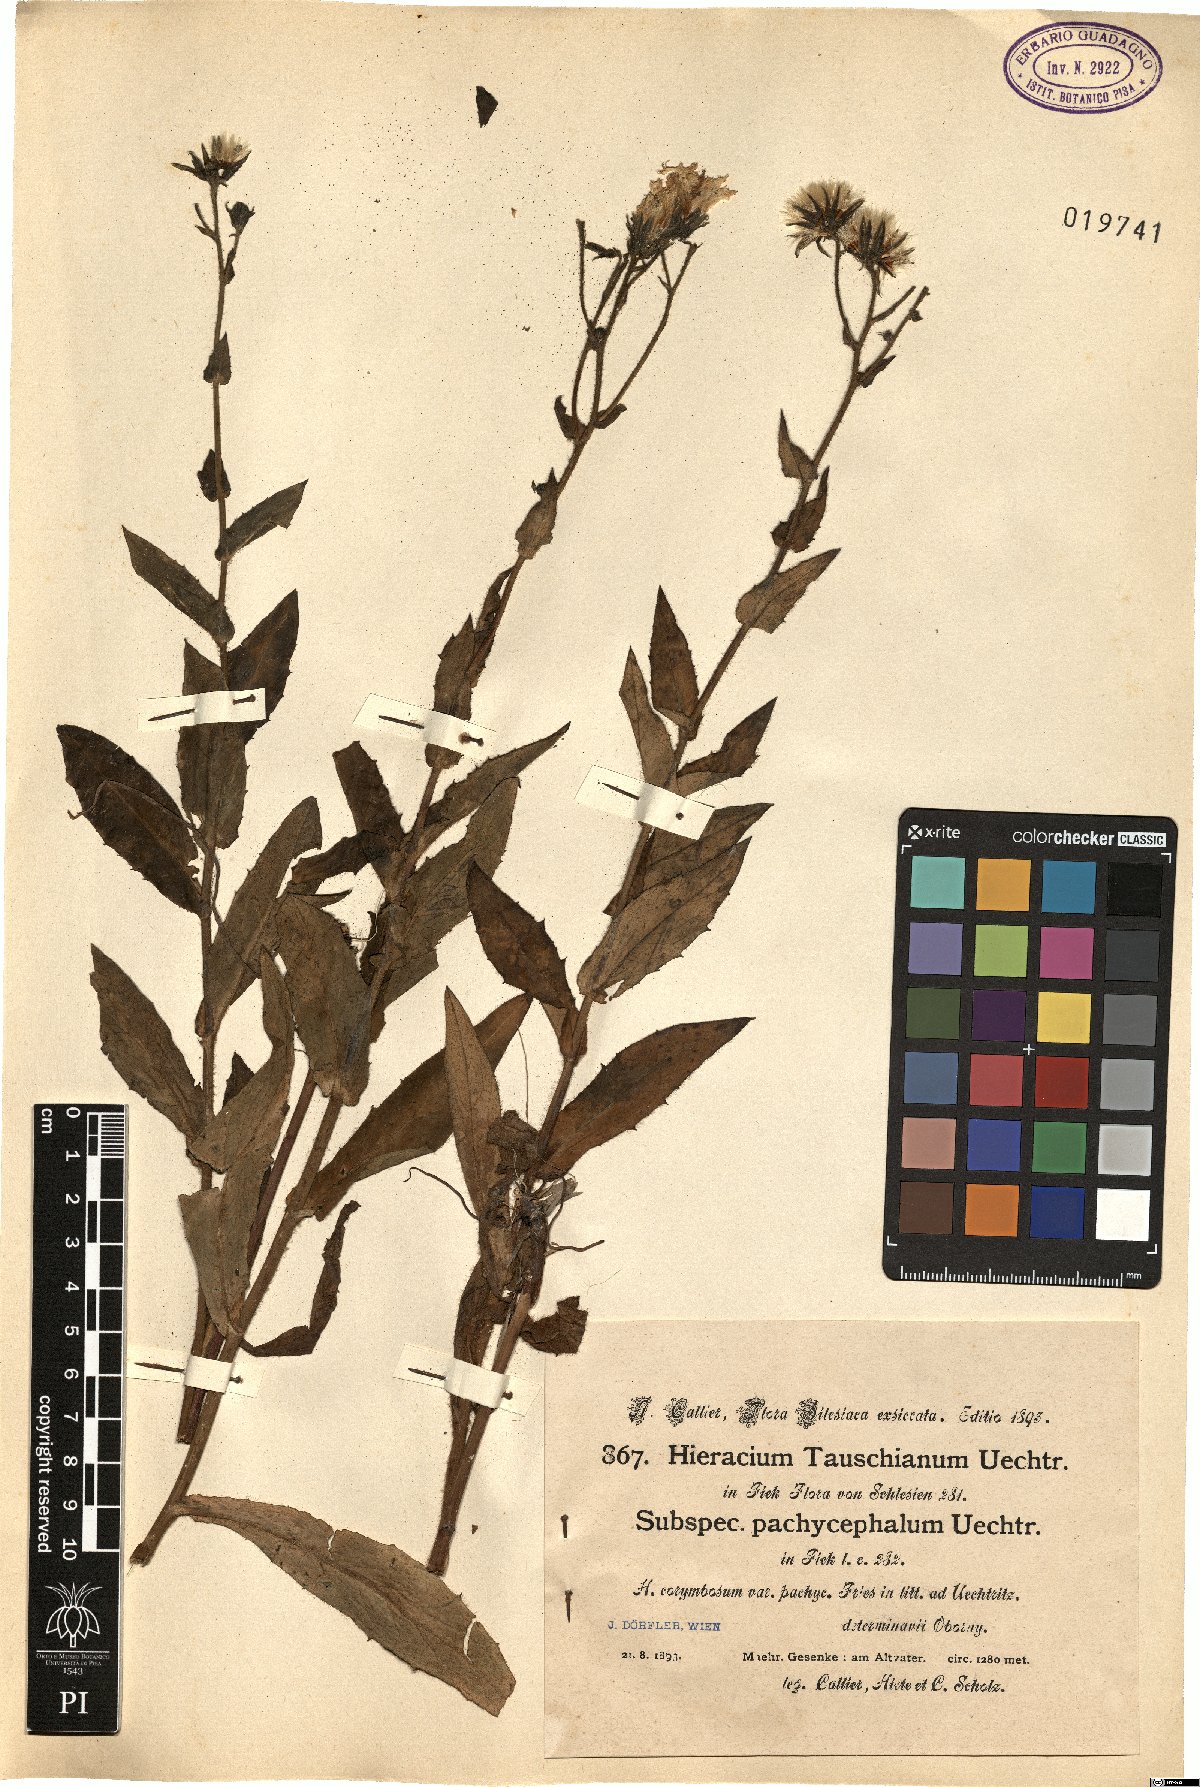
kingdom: Plantae
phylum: Tracheophyta
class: Magnoliopsida
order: Asterales
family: Asteraceae
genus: Hieracium
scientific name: Hieracium inuloides
